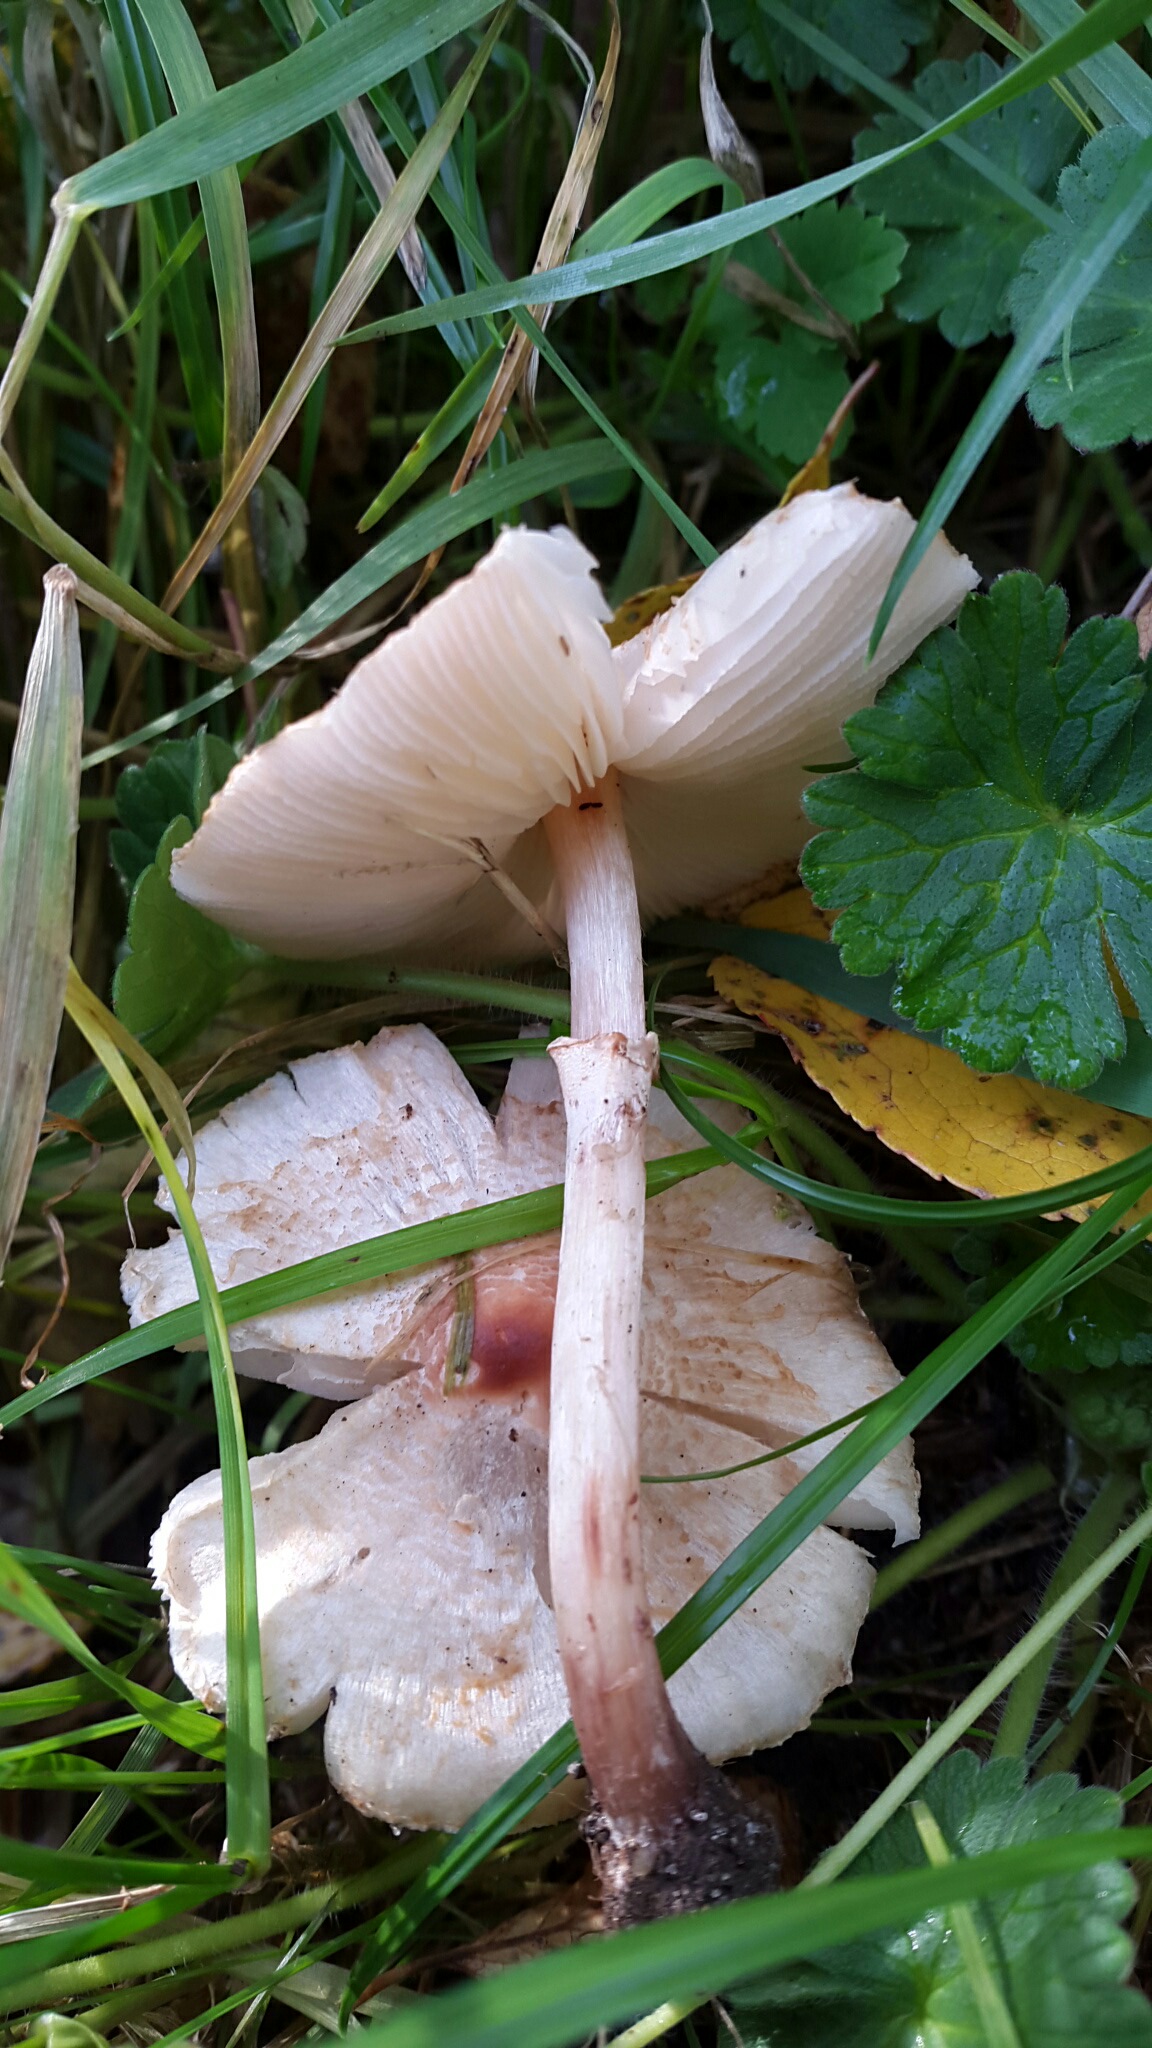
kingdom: Fungi
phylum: Basidiomycota
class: Agaricomycetes
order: Agaricales
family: Agaricaceae
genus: Lepiota
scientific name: Lepiota cristata
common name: stinkende parasolhat
